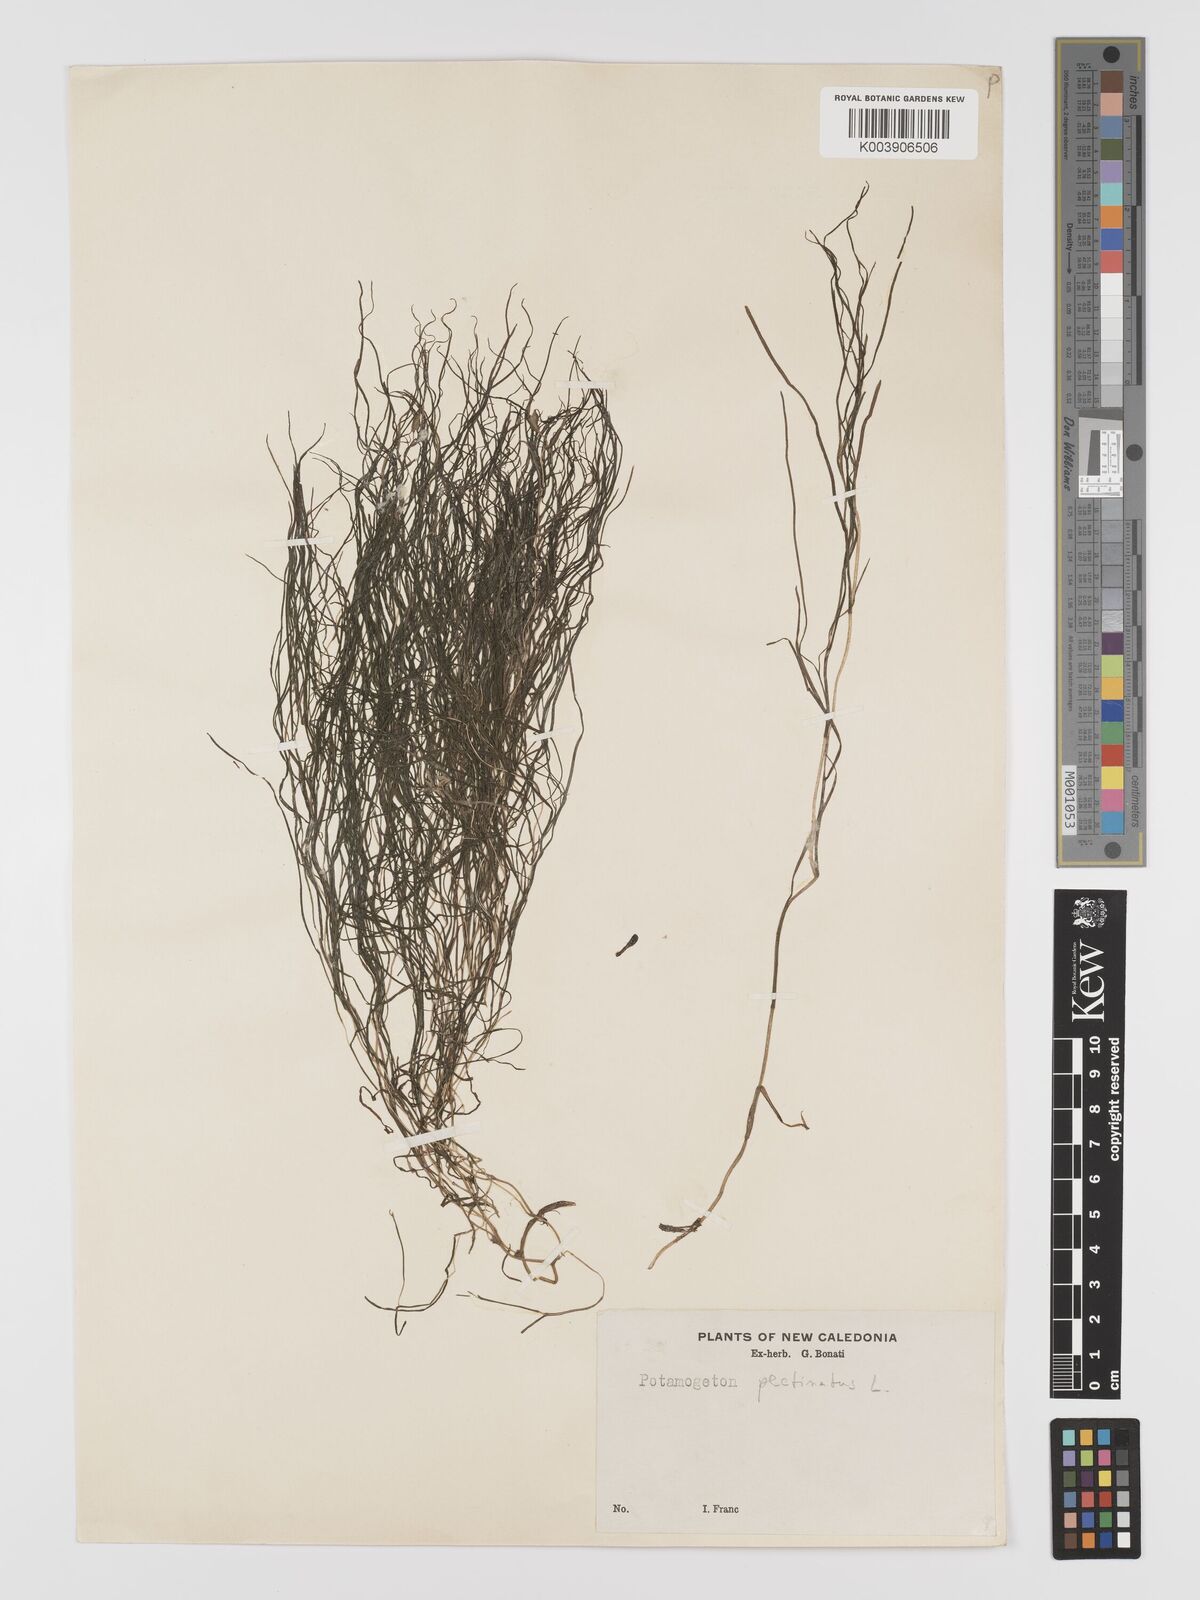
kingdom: Plantae
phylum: Tracheophyta
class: Liliopsida
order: Alismatales
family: Potamogetonaceae
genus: Stuckenia
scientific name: Stuckenia pectinata
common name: Sago pondweed
